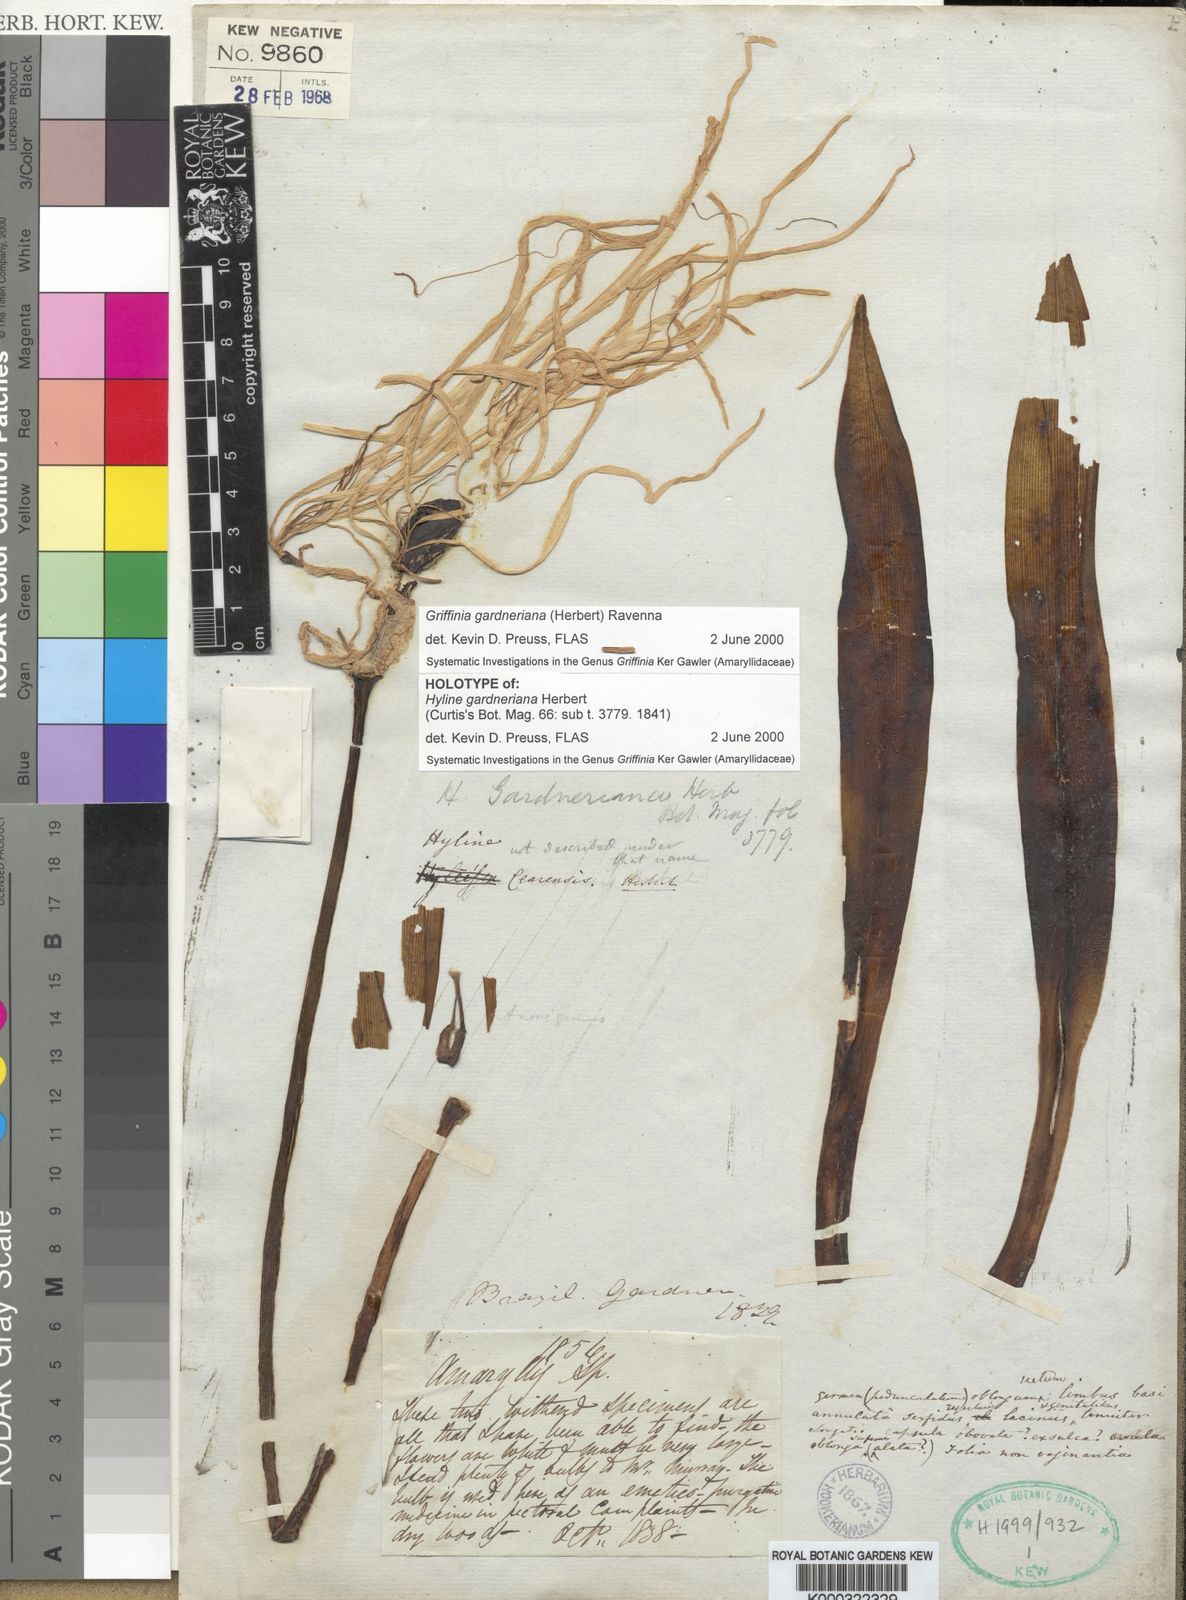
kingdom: Plantae
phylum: Tracheophyta
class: Liliopsida
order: Asparagales
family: Amaryllidaceae
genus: Griffinia
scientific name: Griffinia gardneriana
